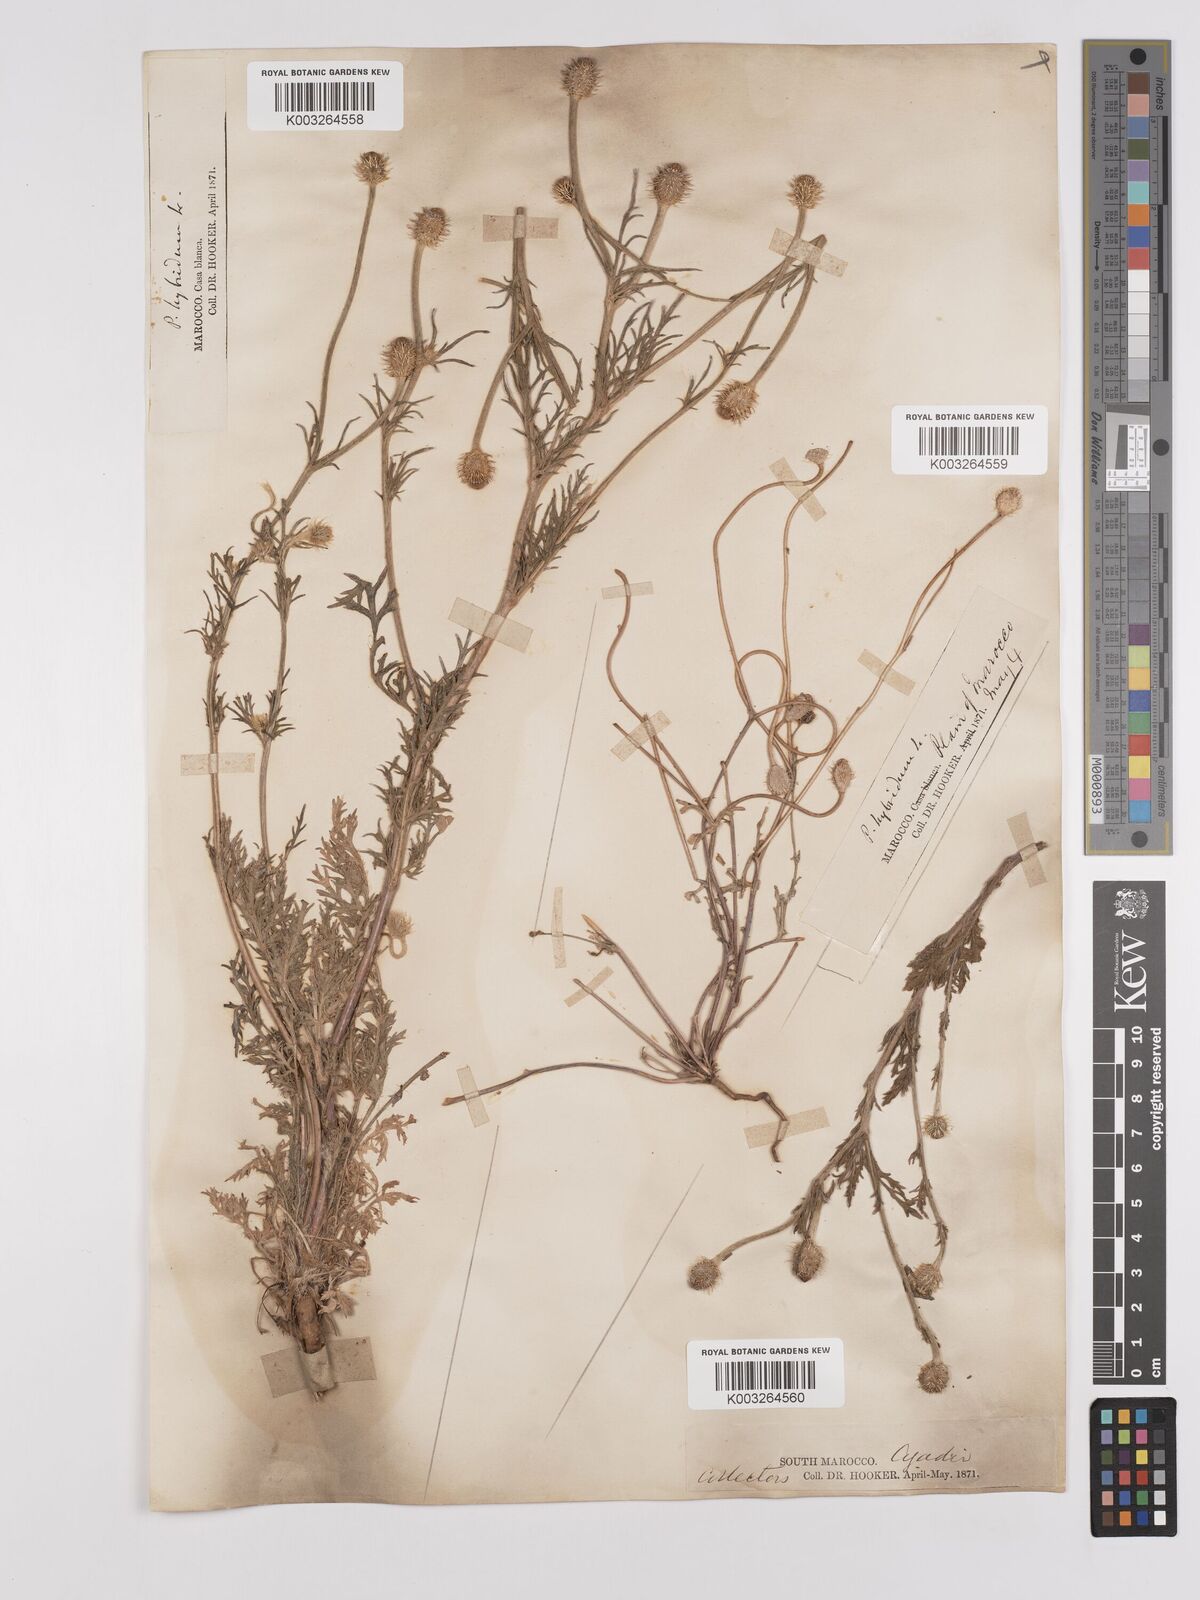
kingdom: Plantae
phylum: Tracheophyta
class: Magnoliopsida
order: Ranunculales
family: Papaveraceae
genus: Papaver
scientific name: Papaver
